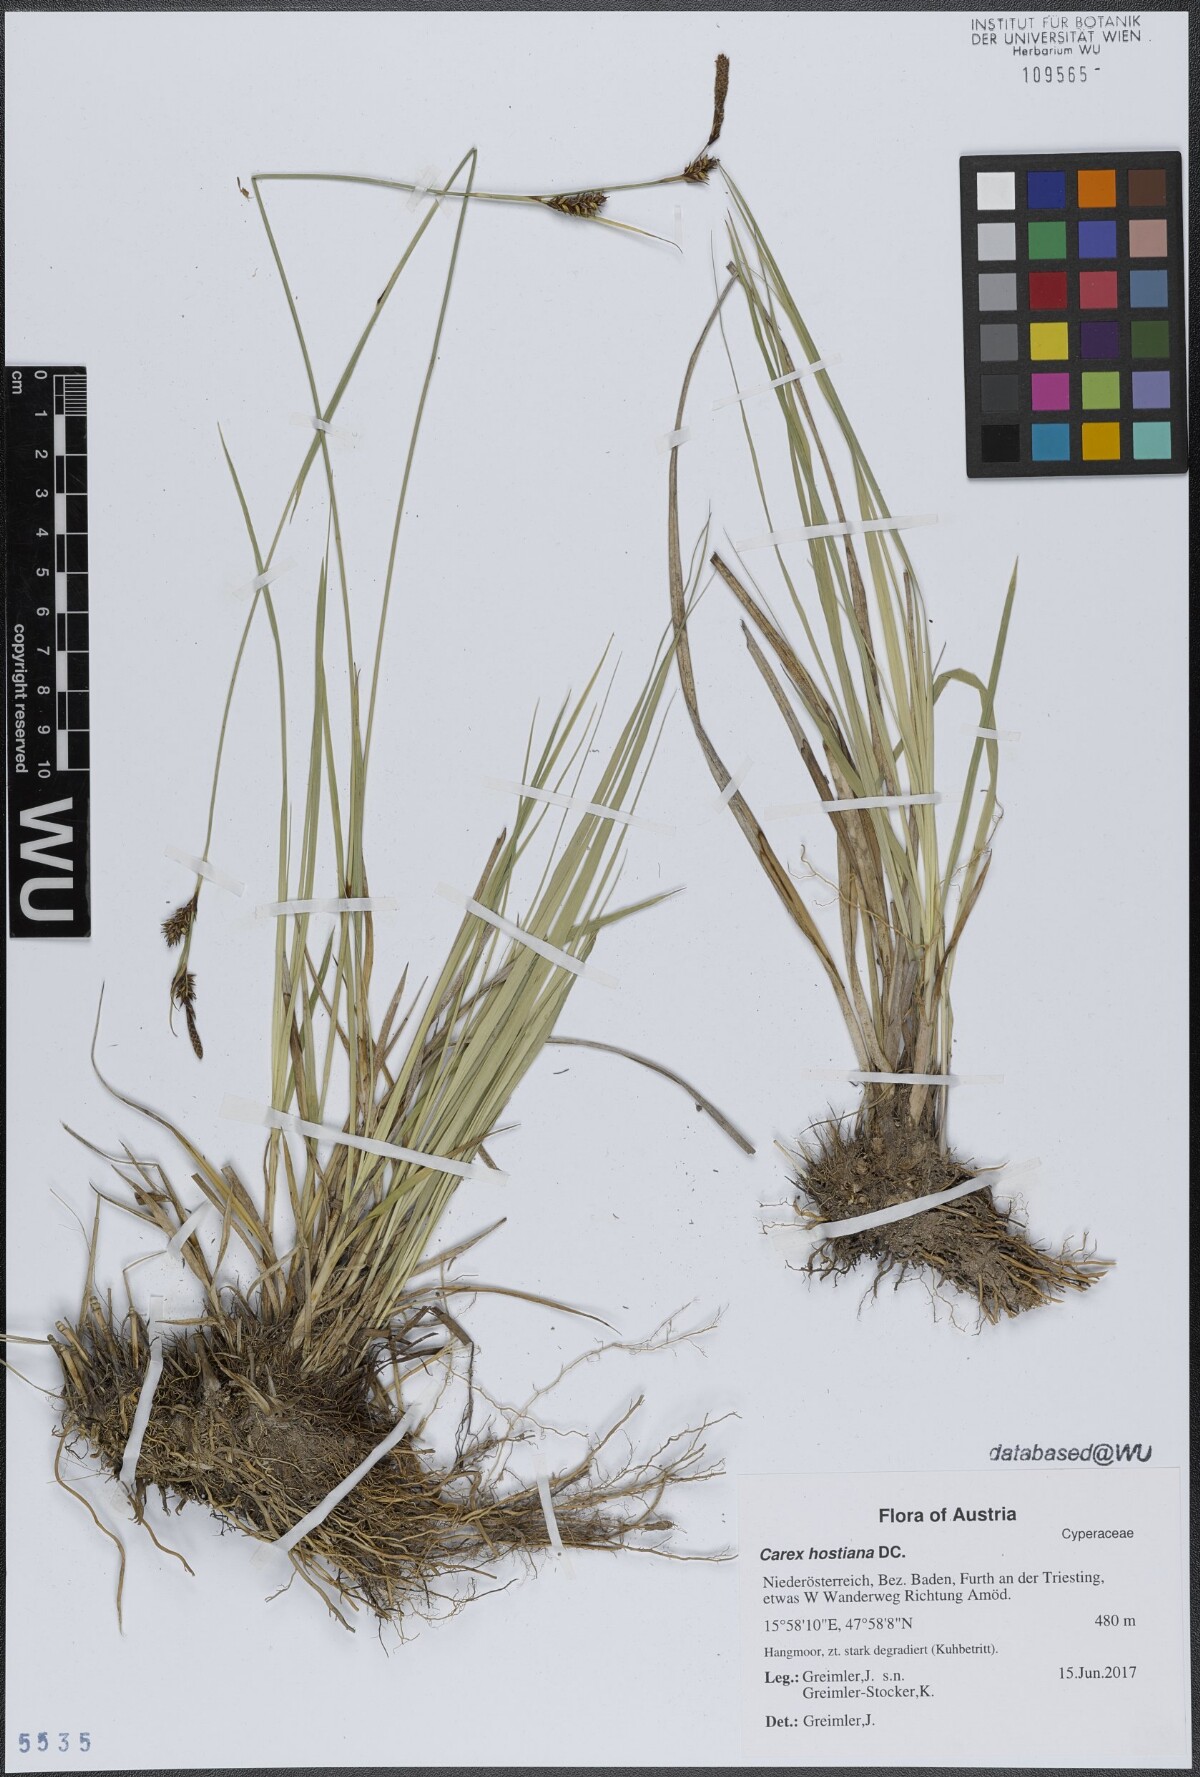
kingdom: Plantae
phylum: Tracheophyta
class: Liliopsida
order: Poales
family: Cyperaceae
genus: Carex
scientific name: Carex hostiana
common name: Tawny sedge
